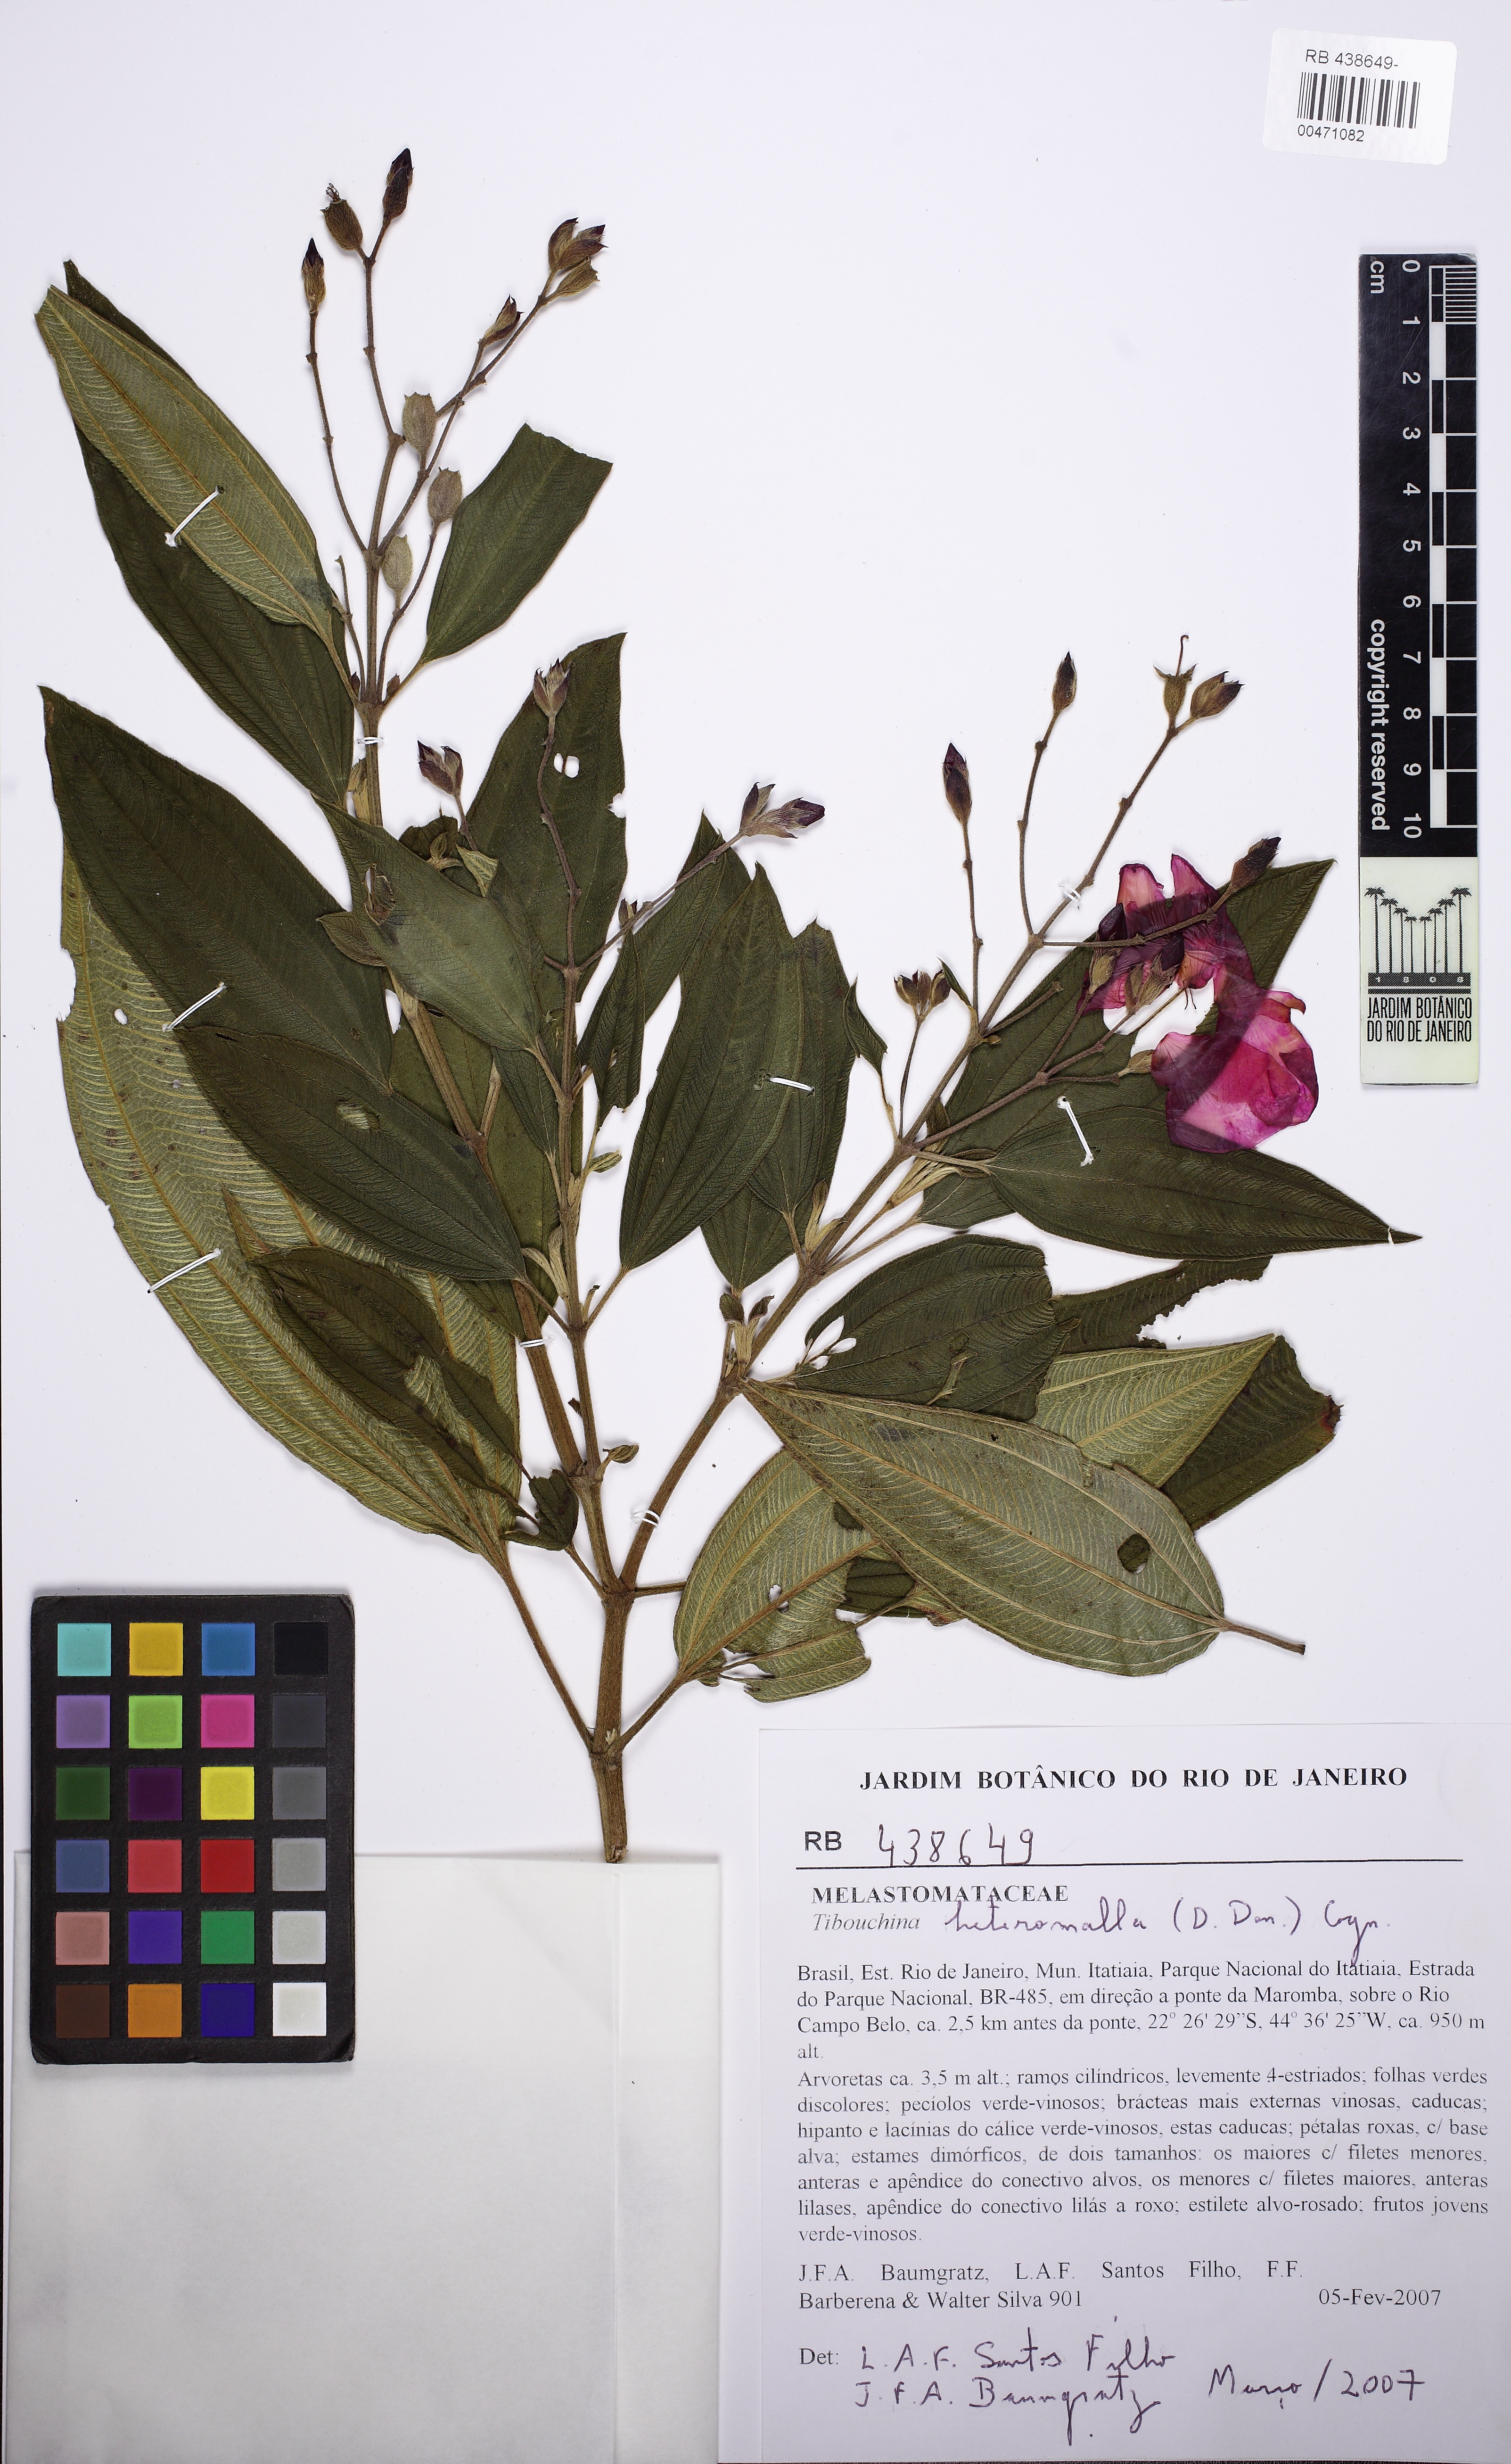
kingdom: Plantae
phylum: Tracheophyta
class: Magnoliopsida
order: Myrtales
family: Melastomataceae
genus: Pleroma
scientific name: Pleroma heteromallum
